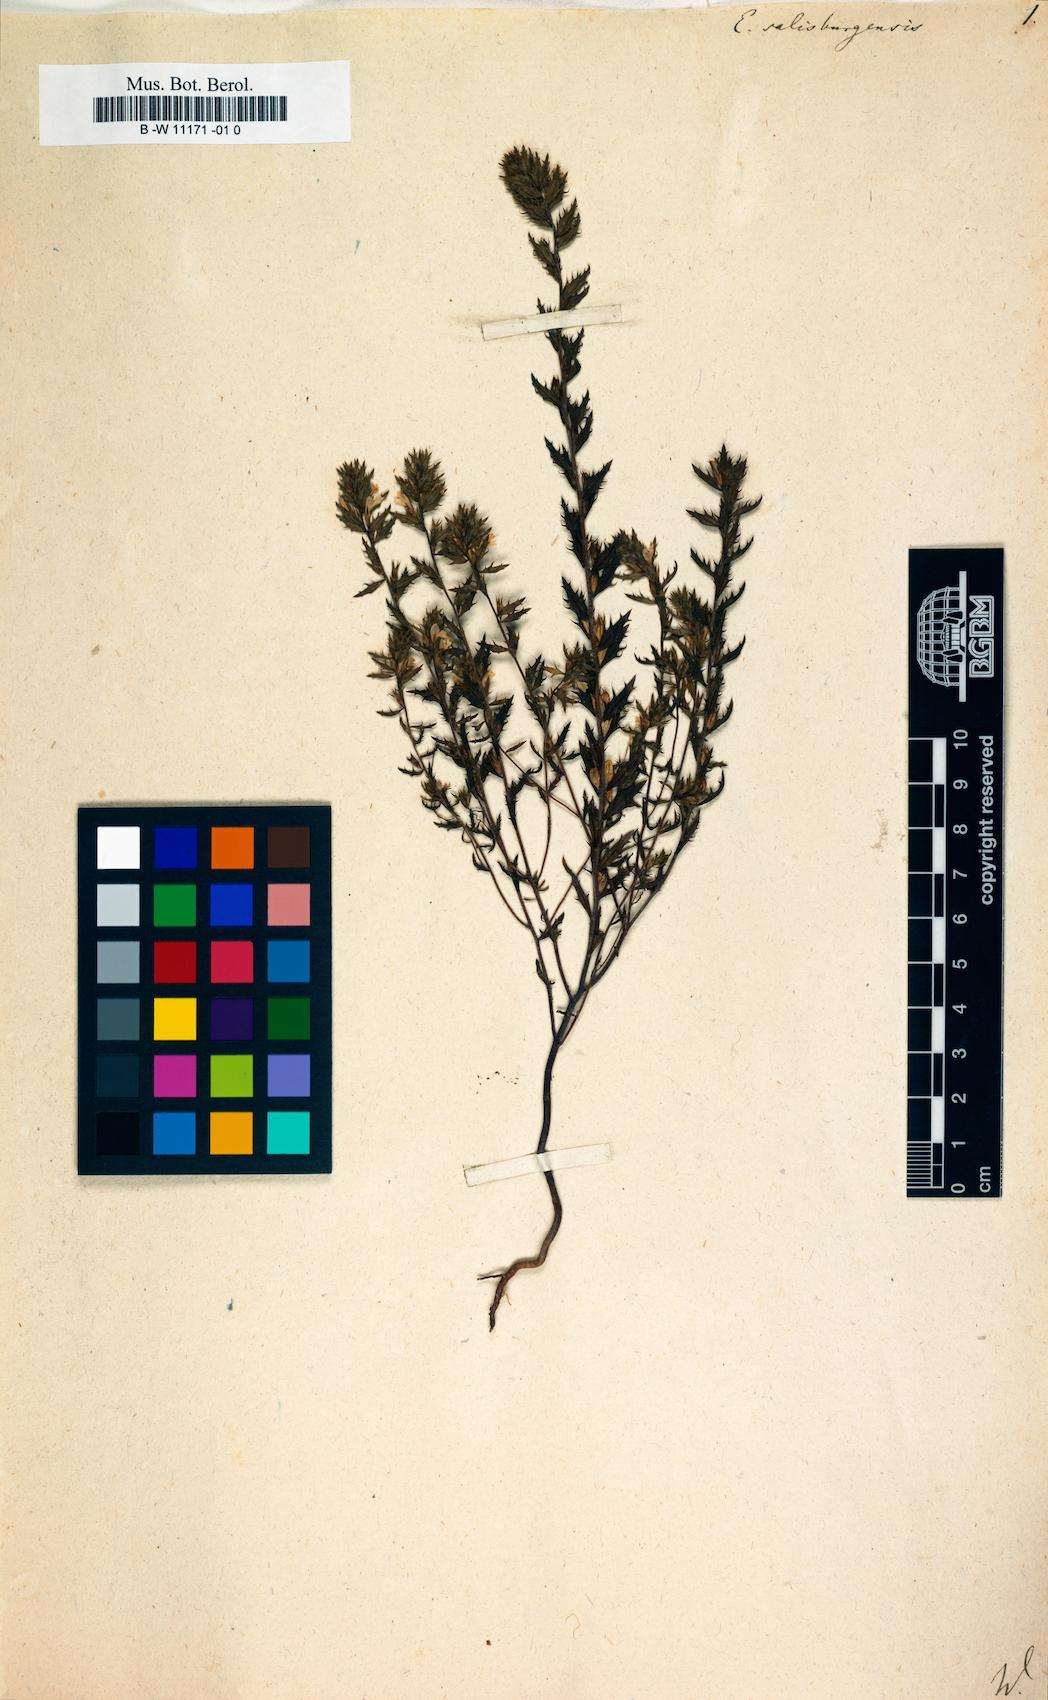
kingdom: Plantae
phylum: Tracheophyta
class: Magnoliopsida
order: Lamiales
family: Orobanchaceae
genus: Euphrasia
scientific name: Euphrasia salisburgensis
